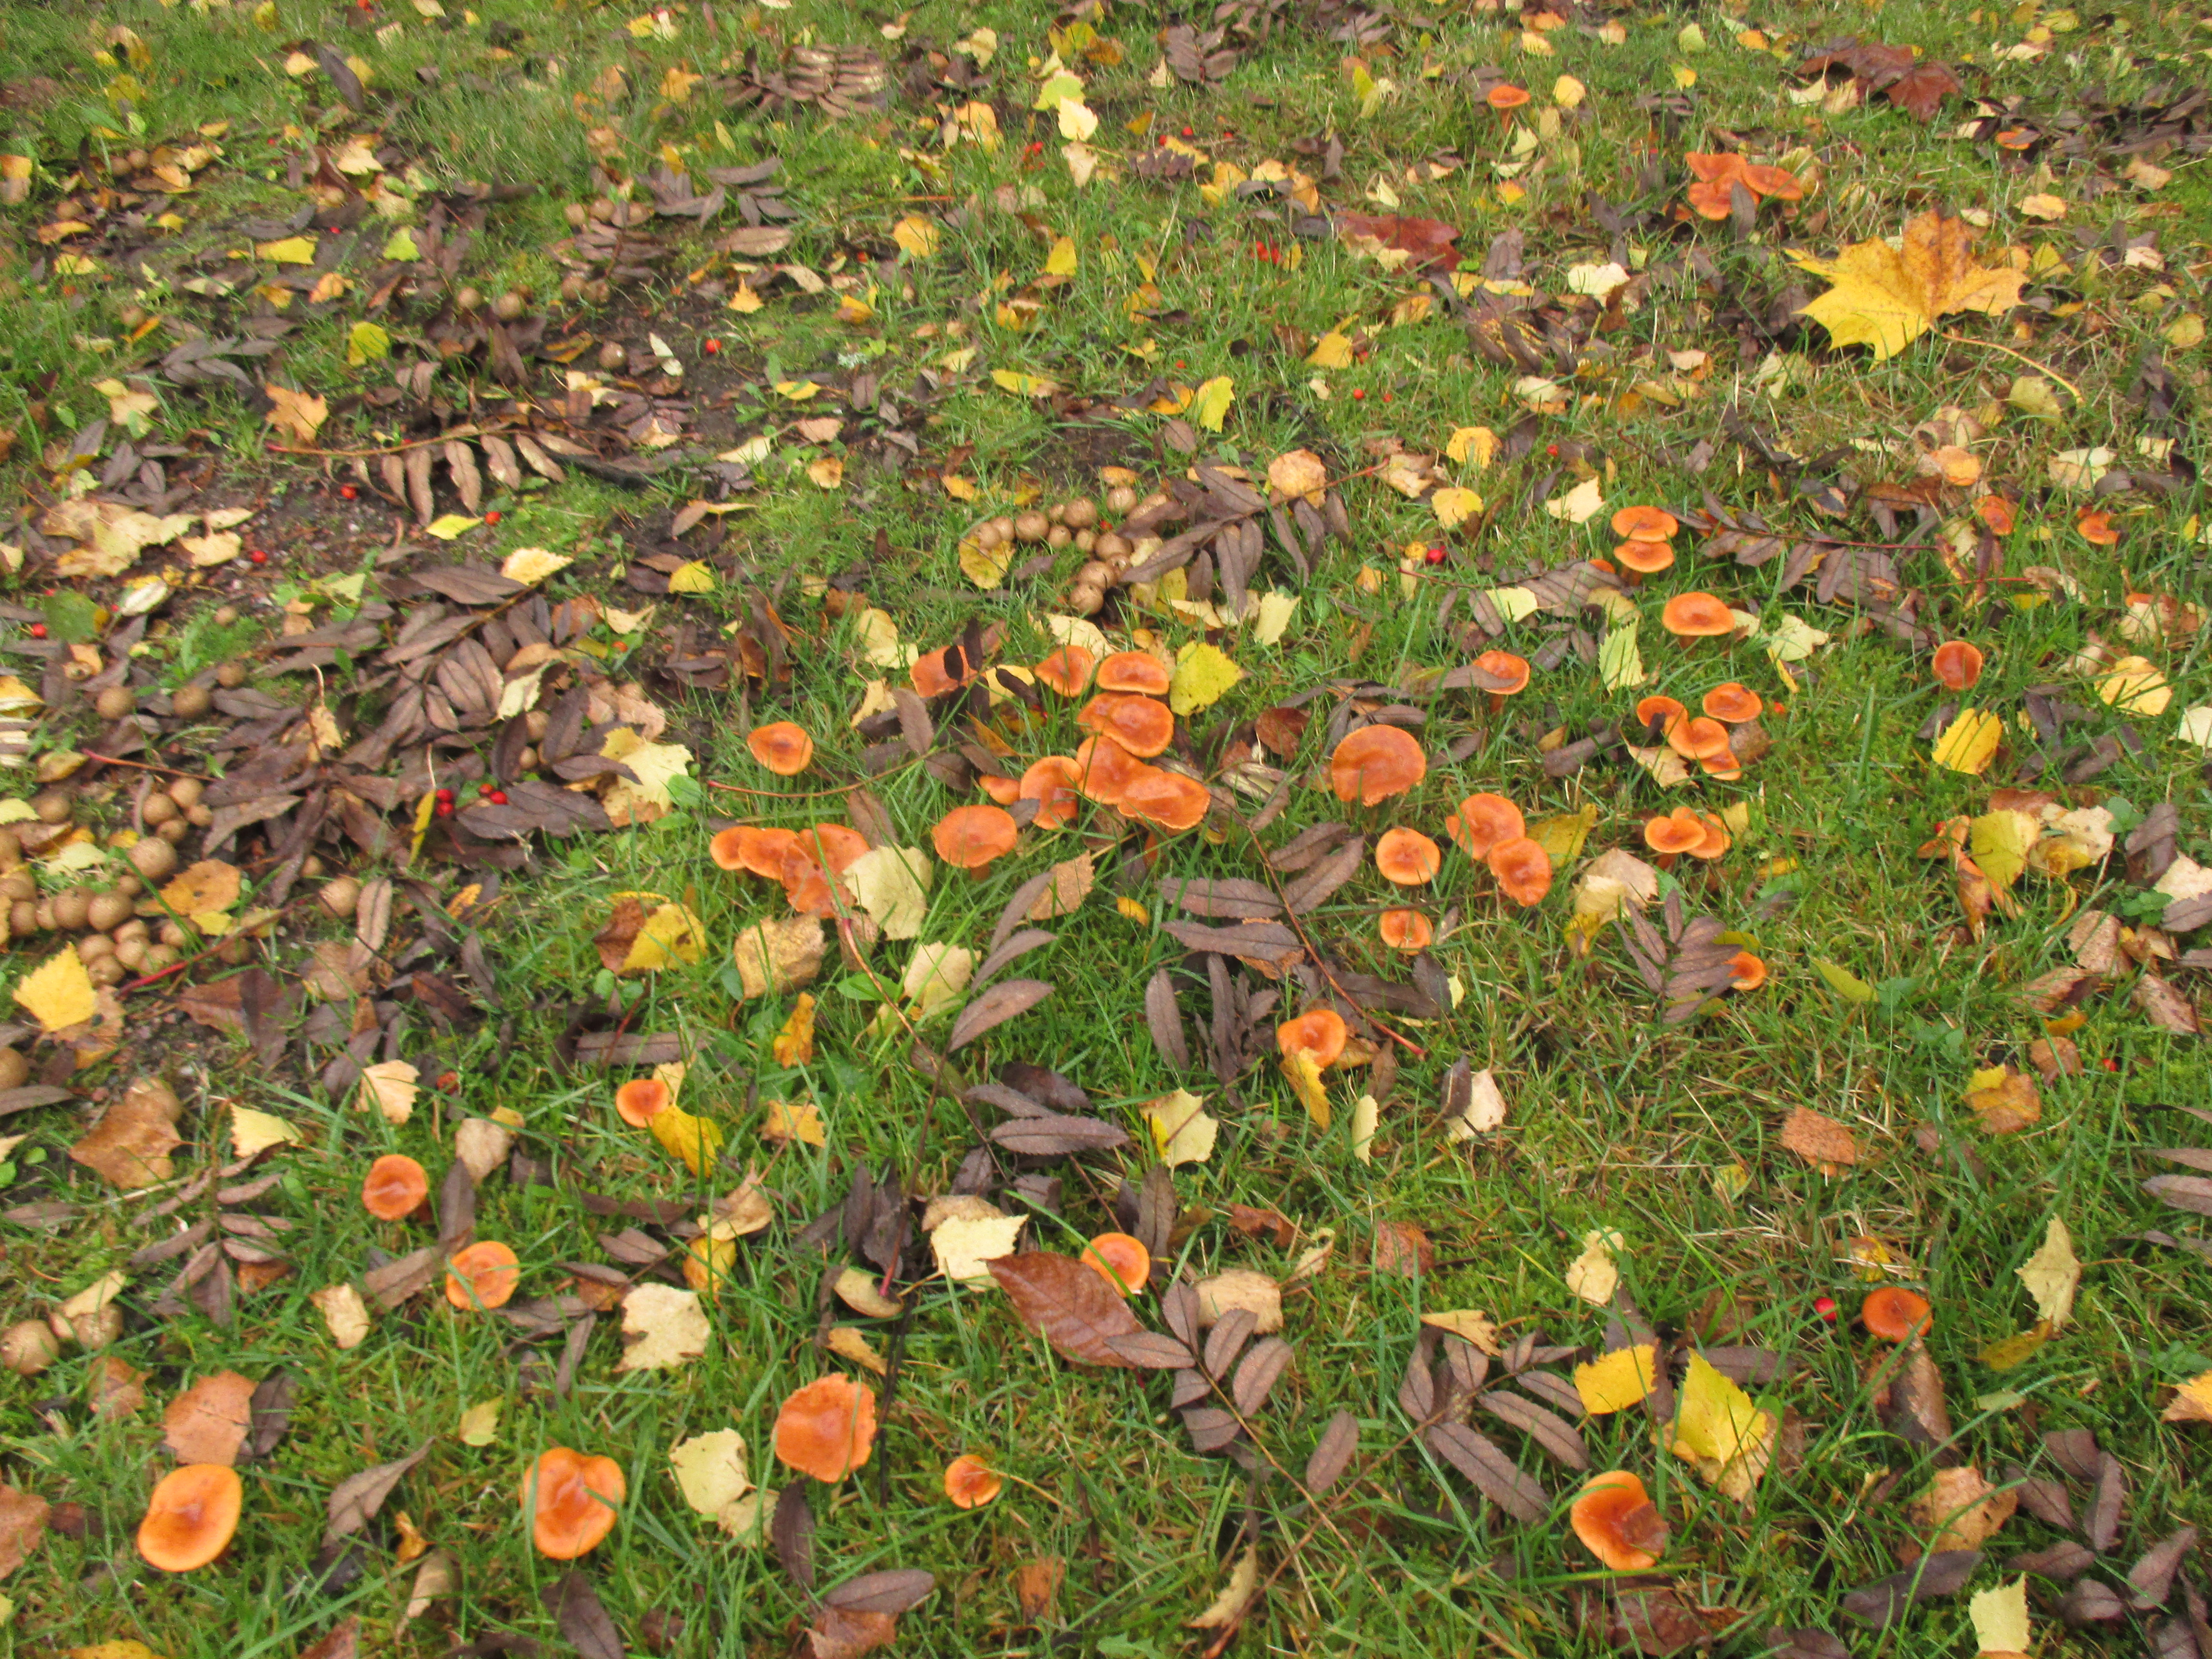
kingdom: Fungi
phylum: Basidiomycota
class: Agaricomycetes
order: Russulales
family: Russulaceae
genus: Lactarius
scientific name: Lactarius aurantiacus
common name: Orange milkcap
